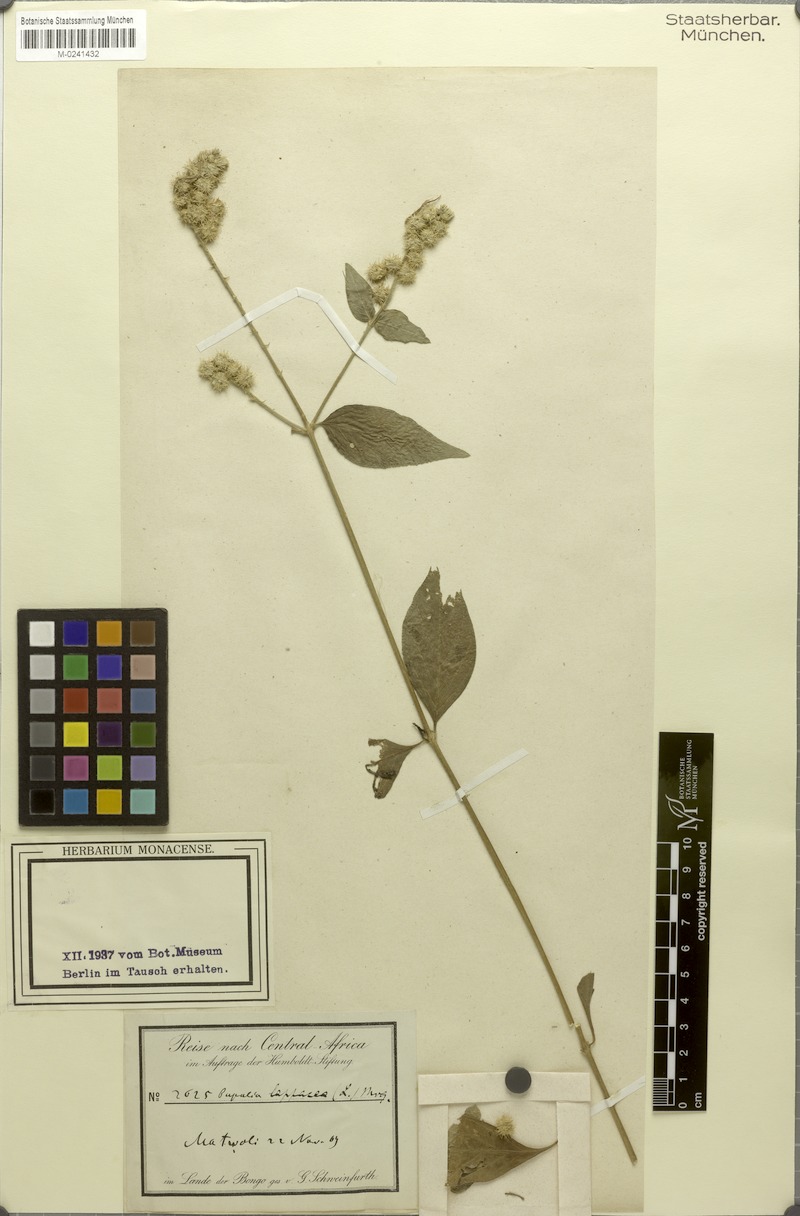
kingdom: Plantae
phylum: Tracheophyta
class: Magnoliopsida
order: Caryophyllales
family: Amaranthaceae
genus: Pupalia
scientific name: Pupalia lappacea
